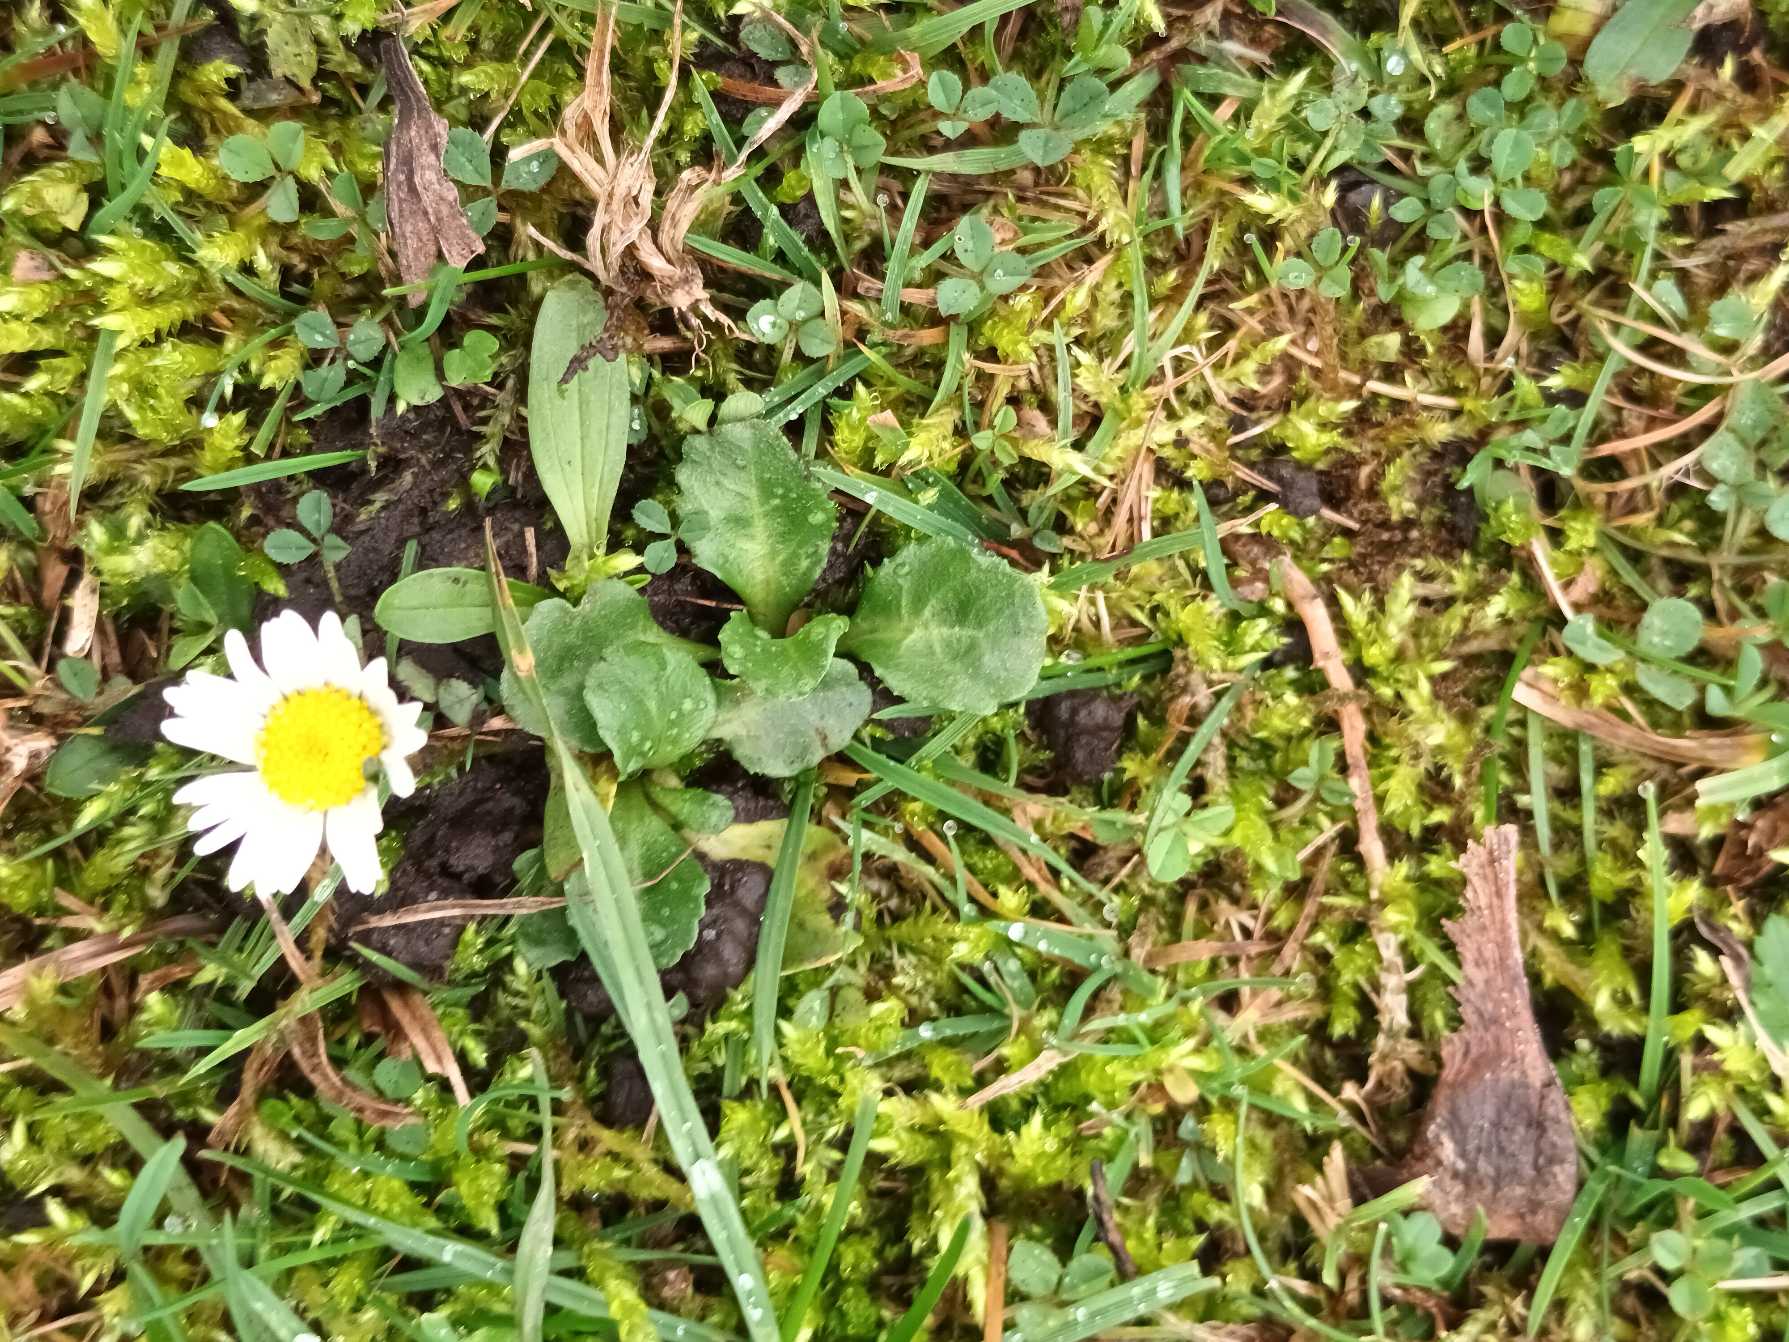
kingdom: Plantae
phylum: Tracheophyta
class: Magnoliopsida
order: Asterales
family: Asteraceae
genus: Bellis
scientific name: Bellis perennis
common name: Tusindfryd
